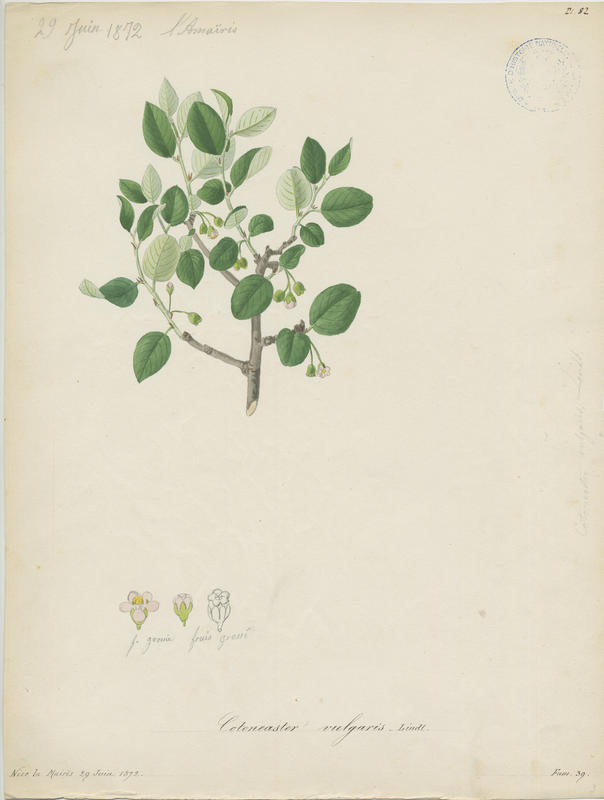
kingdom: Plantae
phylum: Tracheophyta
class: Magnoliopsida
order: Rosales
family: Rosaceae
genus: Cotoneaster
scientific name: Cotoneaster integerrimus
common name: Wild cotoneaster
